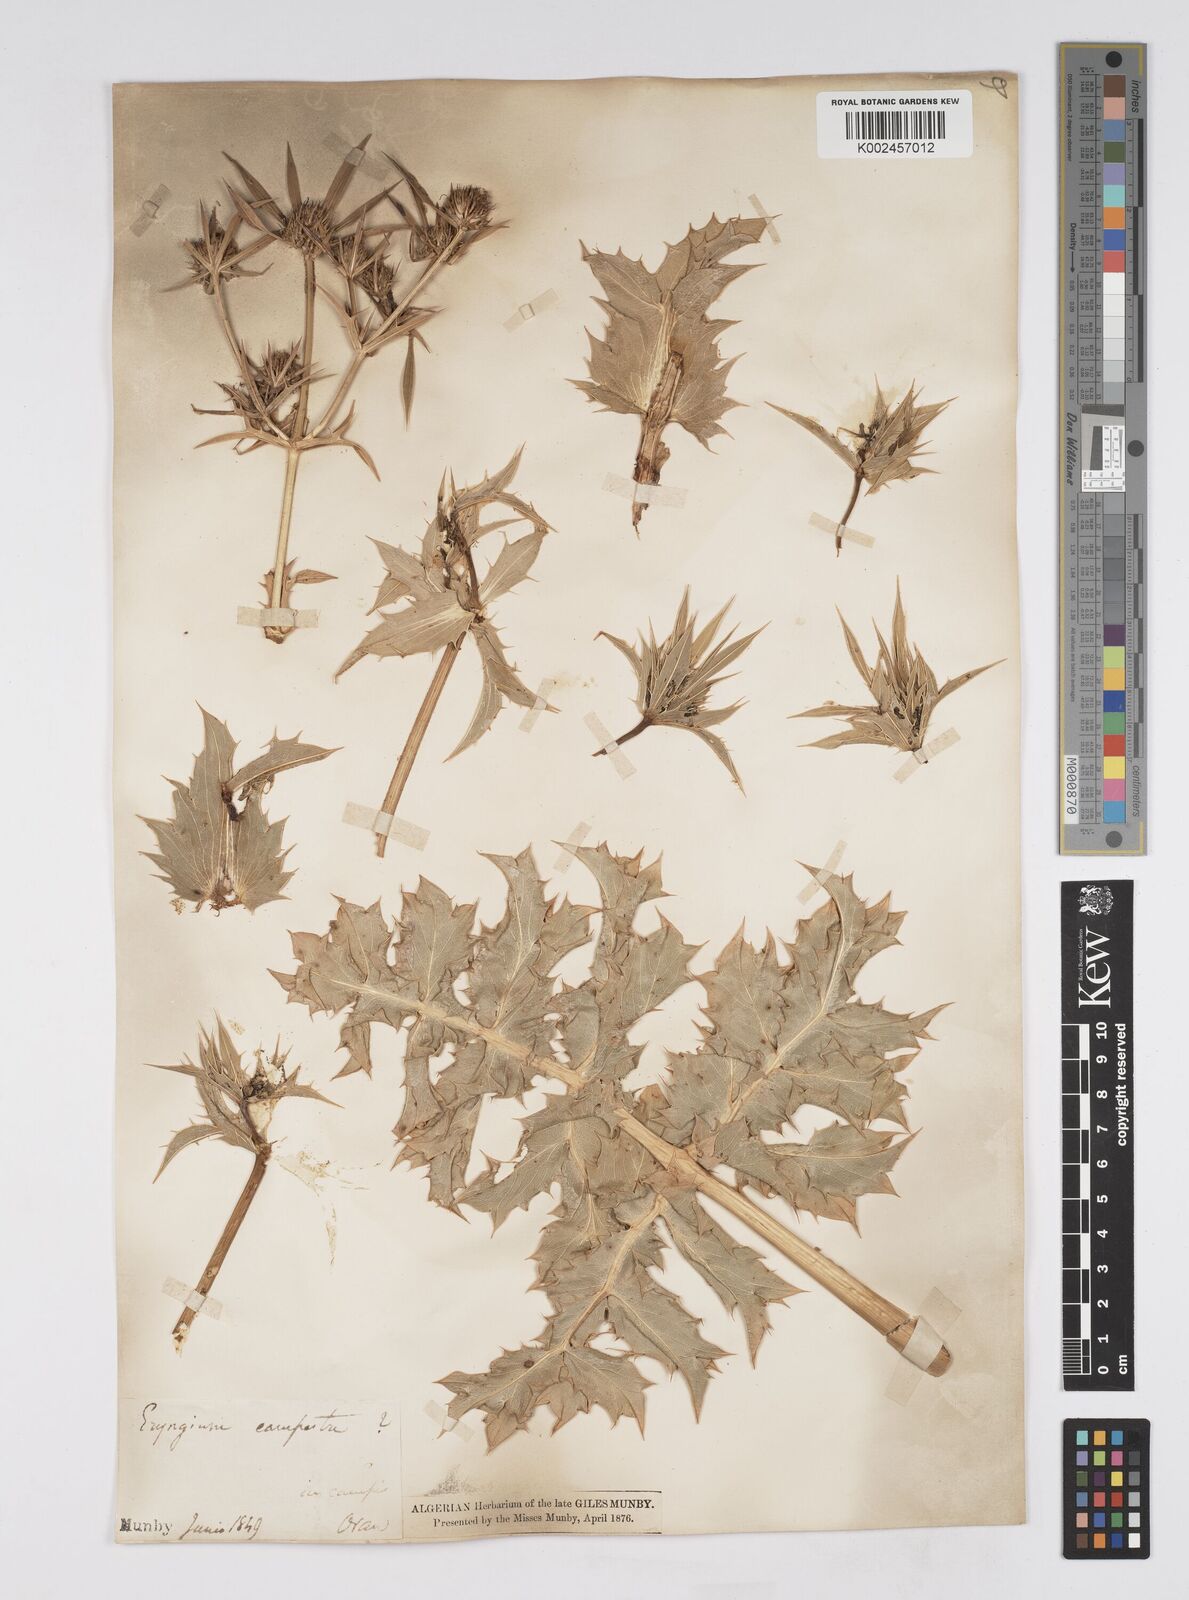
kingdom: Plantae
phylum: Tracheophyta
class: Magnoliopsida
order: Apiales
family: Apiaceae
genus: Eryngium
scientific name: Eryngium campestre
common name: Field eryngo
